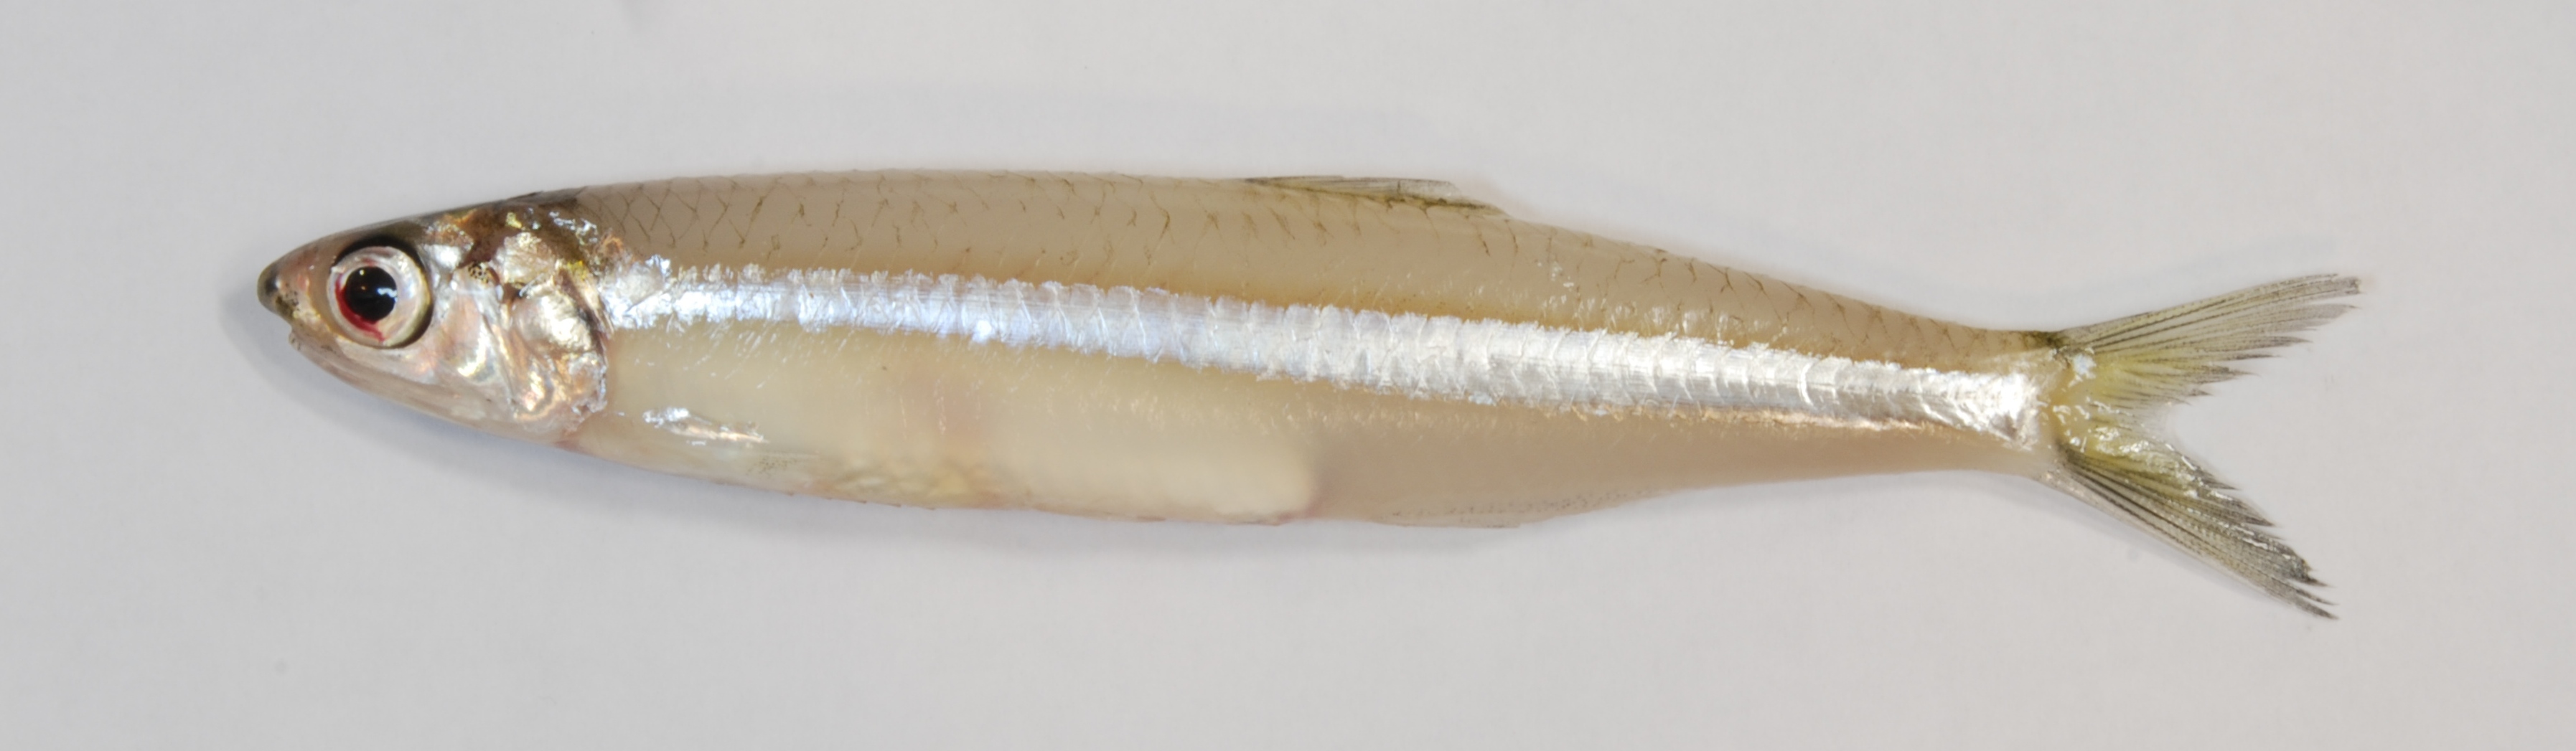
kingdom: Animalia
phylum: Chordata
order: Clupeiformes
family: Engraulidae
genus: Engraulis
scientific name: Engraulis capensis
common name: Southern african anchovy
